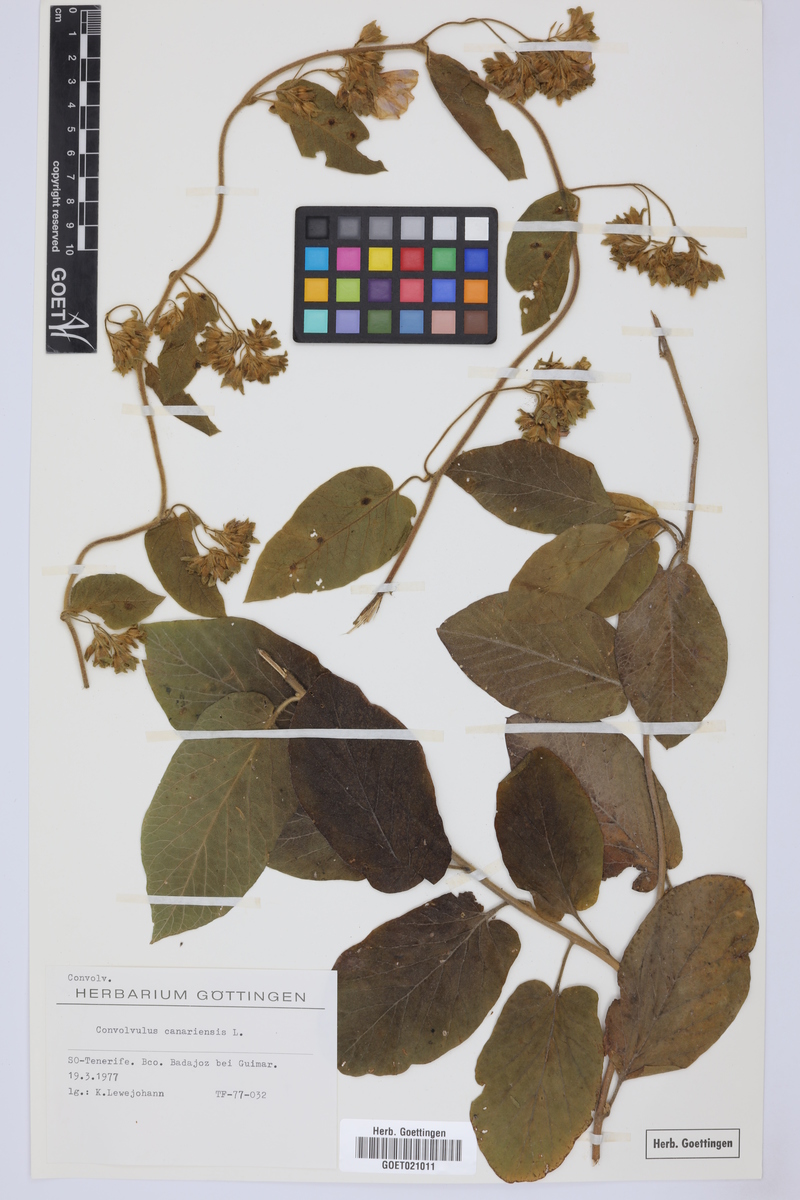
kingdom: Plantae
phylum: Tracheophyta
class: Magnoliopsida
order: Solanales
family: Convolvulaceae
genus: Convolvulus
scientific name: Convolvulus canariensis
